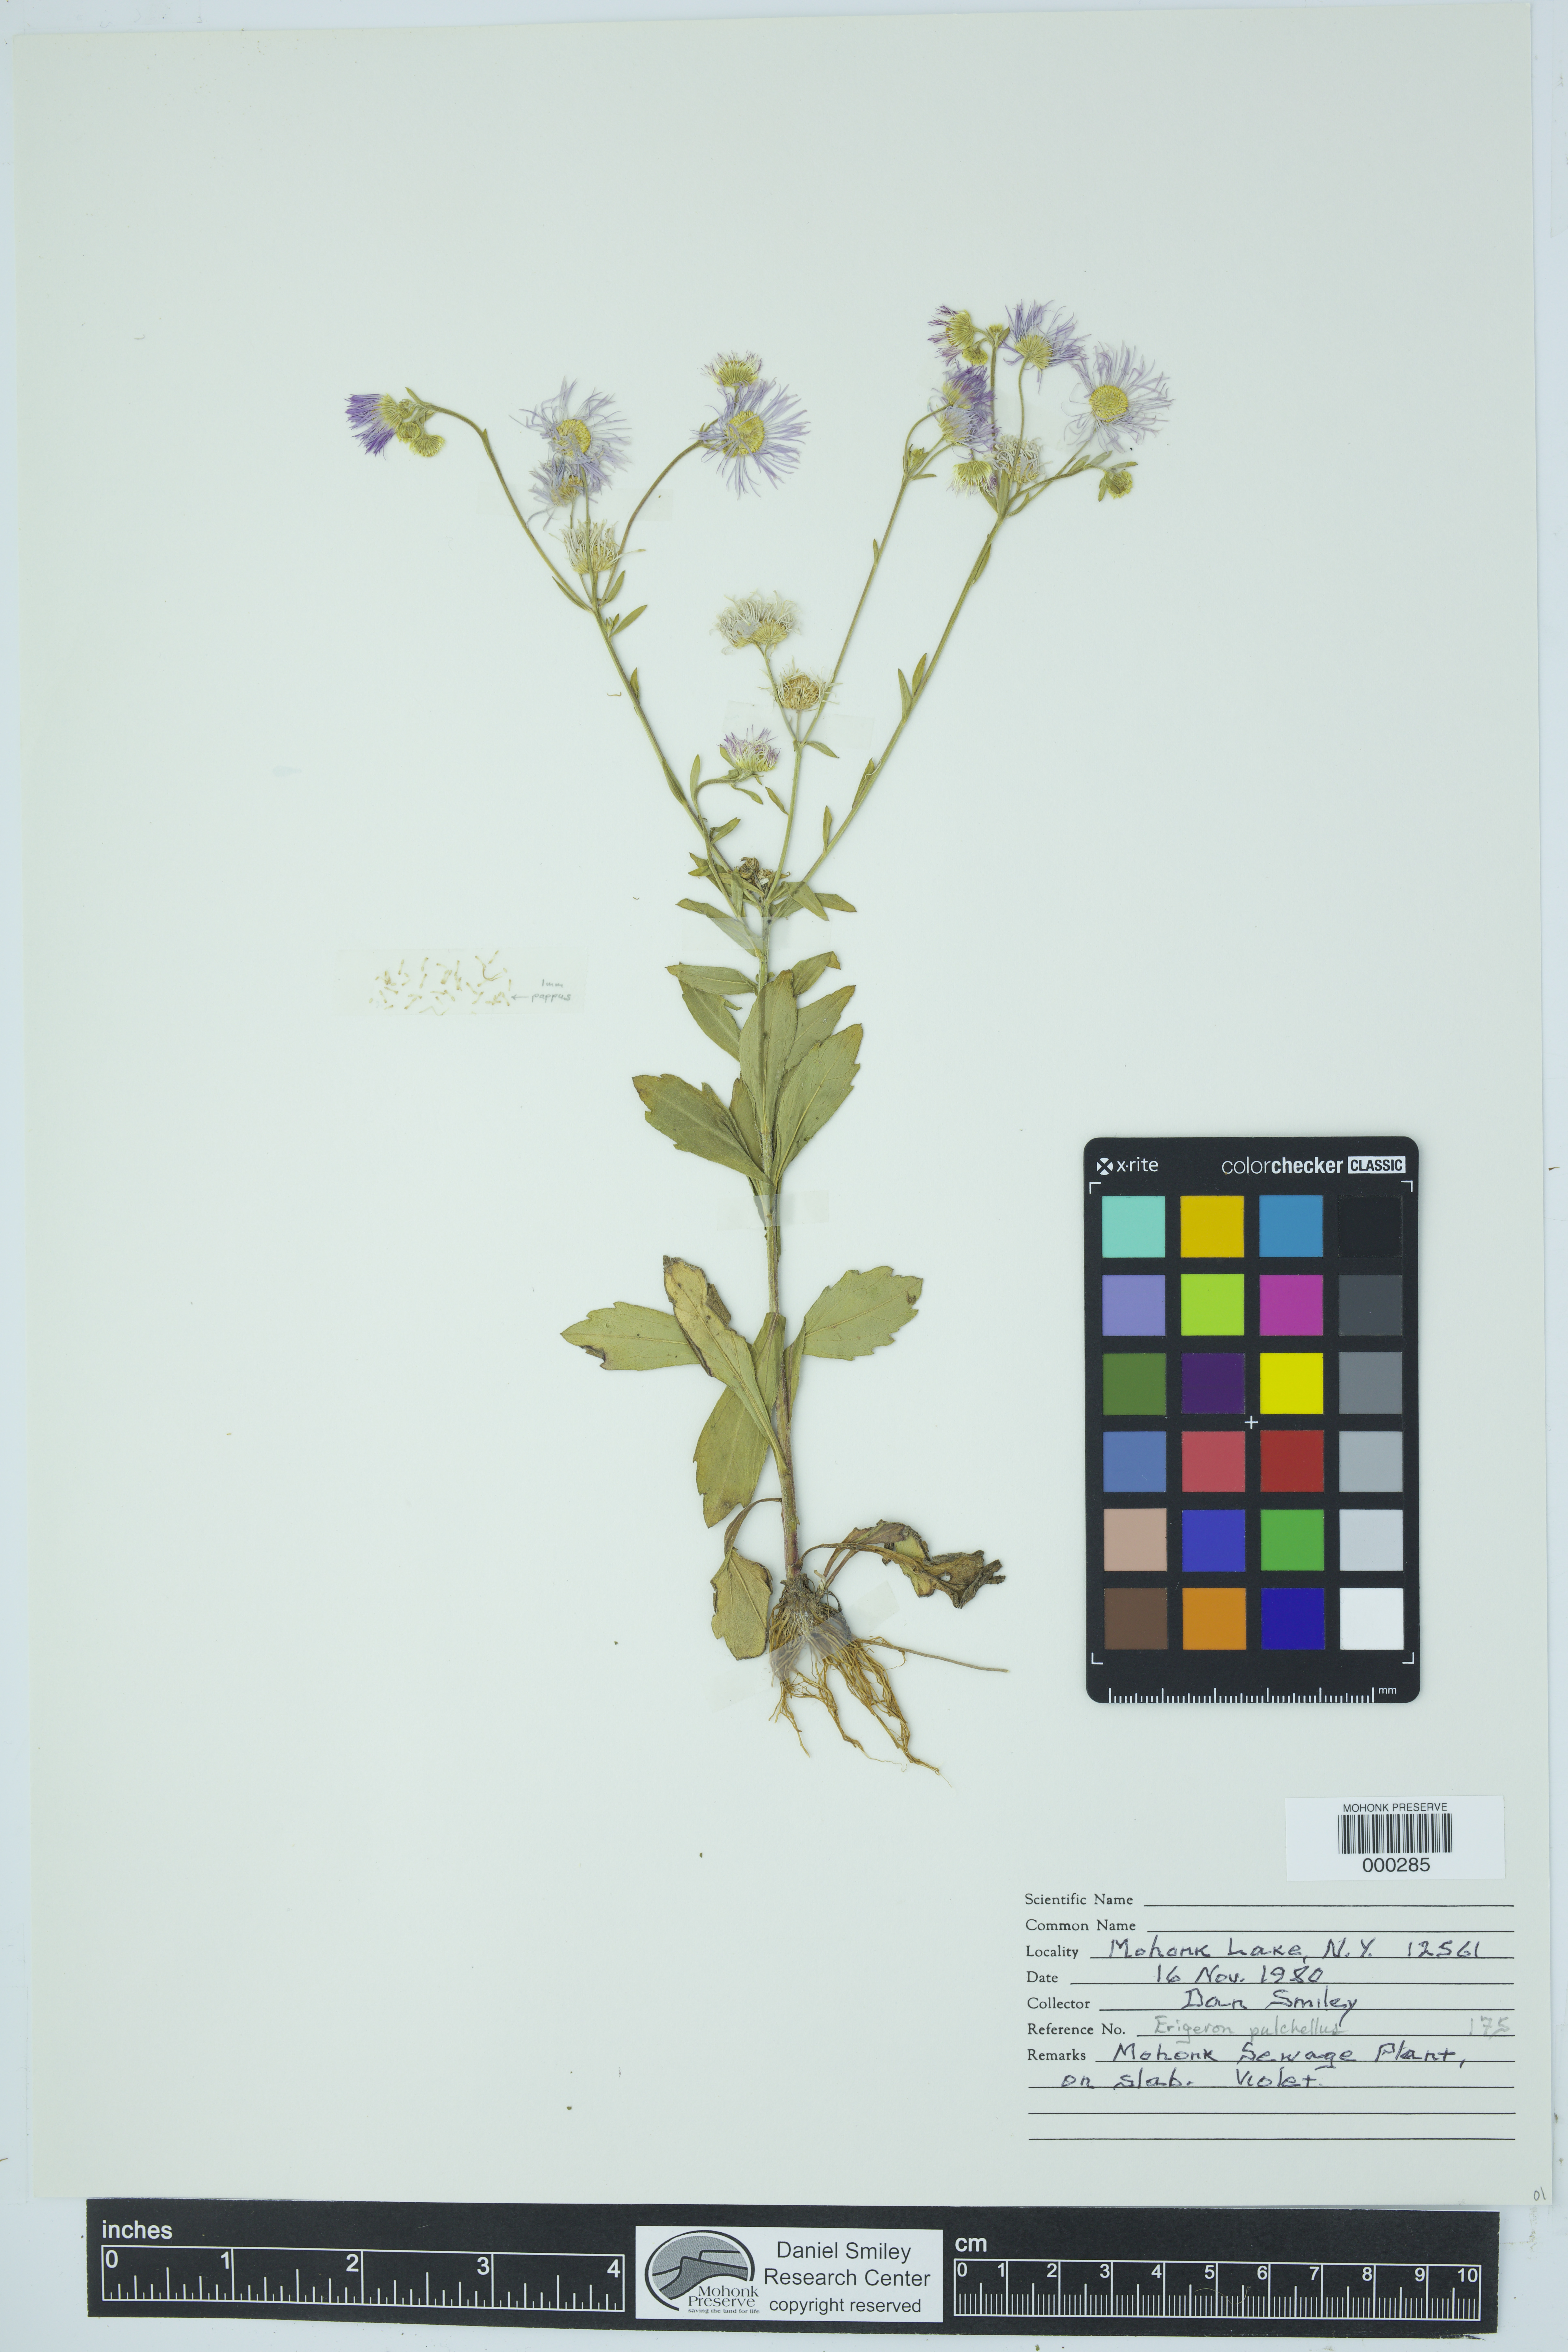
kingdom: Plantae
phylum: Tracheophyta
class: Magnoliopsida
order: Asterales
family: Asteraceae
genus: Erigeron
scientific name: Erigeron pulchellus
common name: Hairy fleabane
